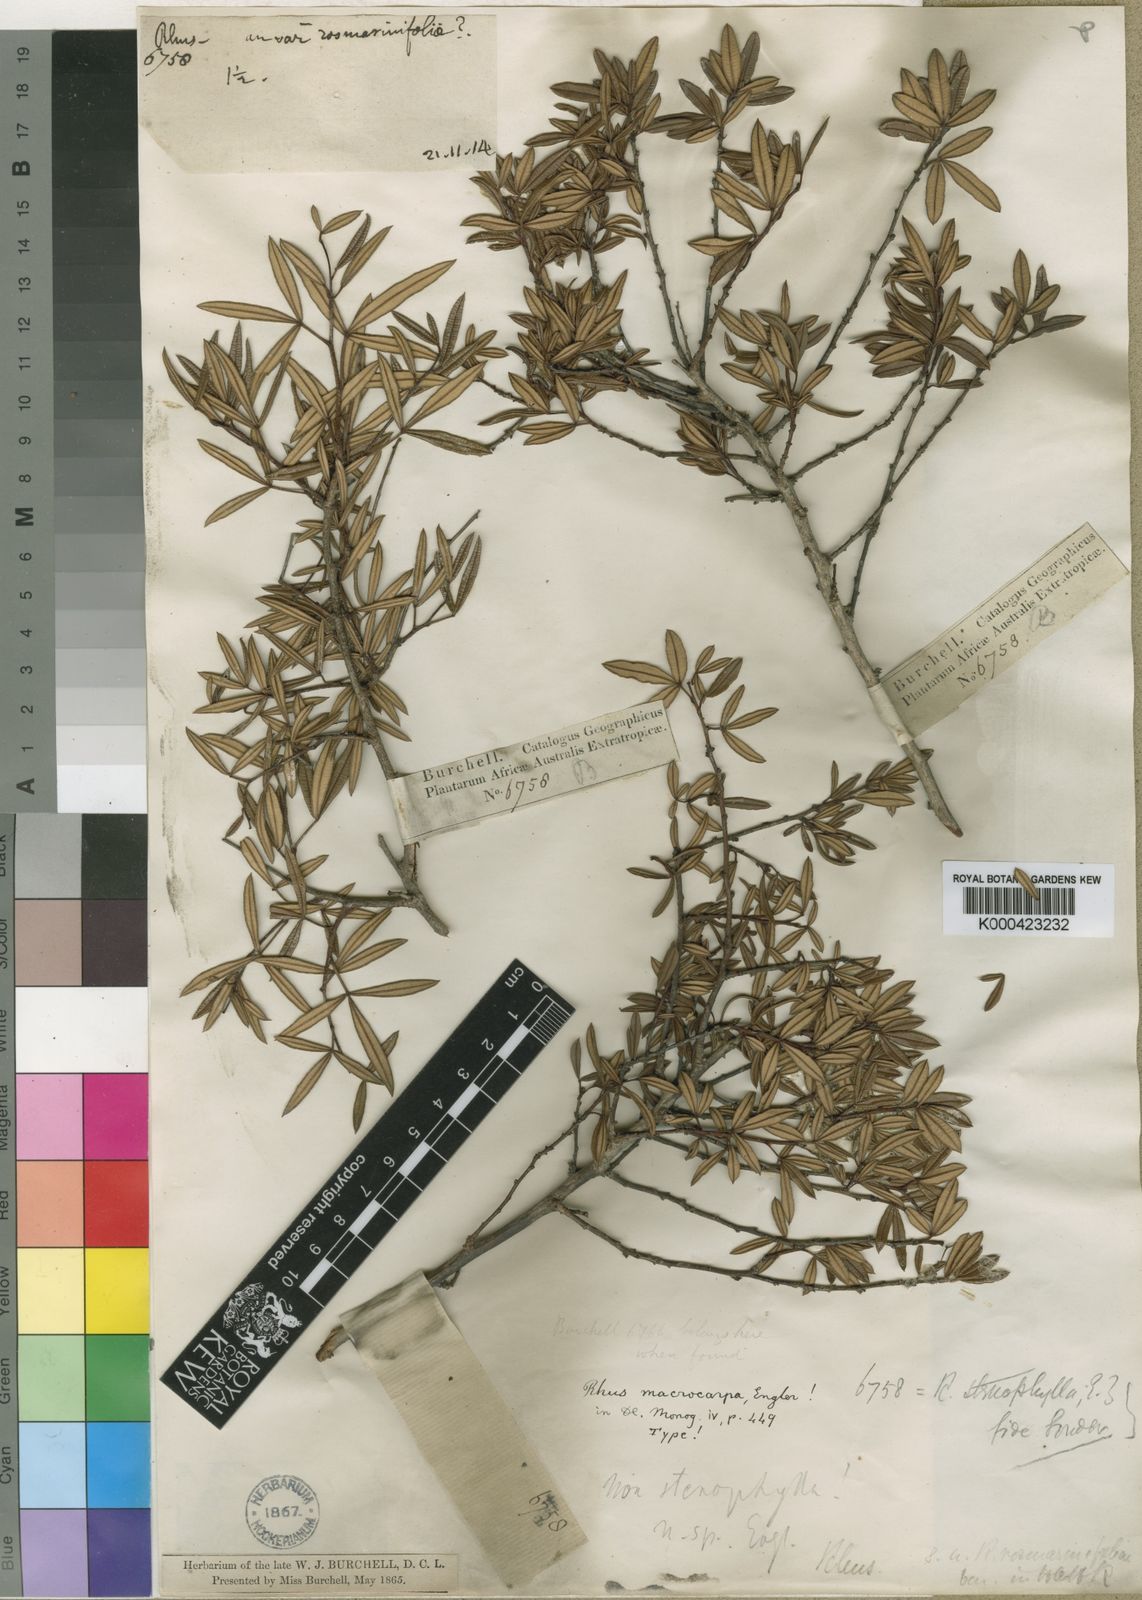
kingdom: Plantae
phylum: Tracheophyta
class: Magnoliopsida
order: Sapindales
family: Anacardiaceae
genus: Searsia
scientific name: Searsia rosmarinifolia
